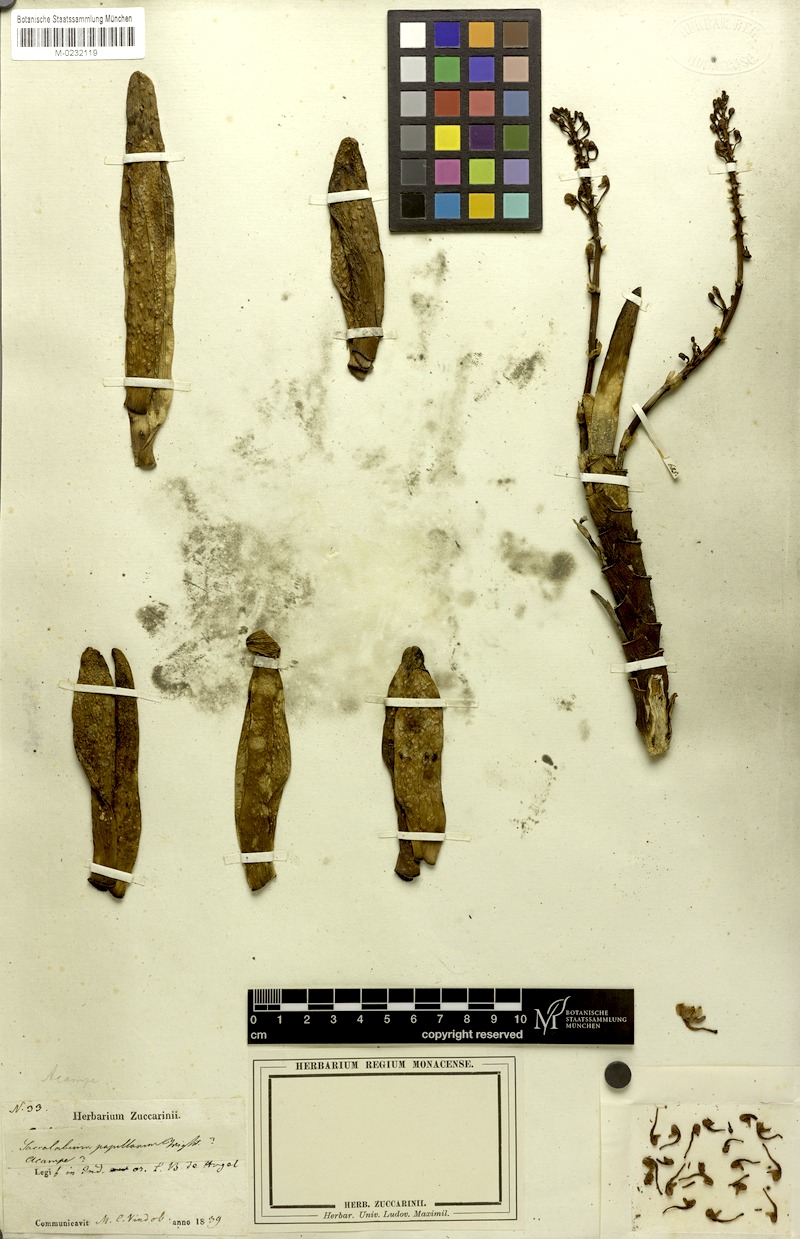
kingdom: Plantae
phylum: Tracheophyta
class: Liliopsida
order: Asparagales
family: Orchidaceae
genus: Acampe
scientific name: Acampe praemorsa
